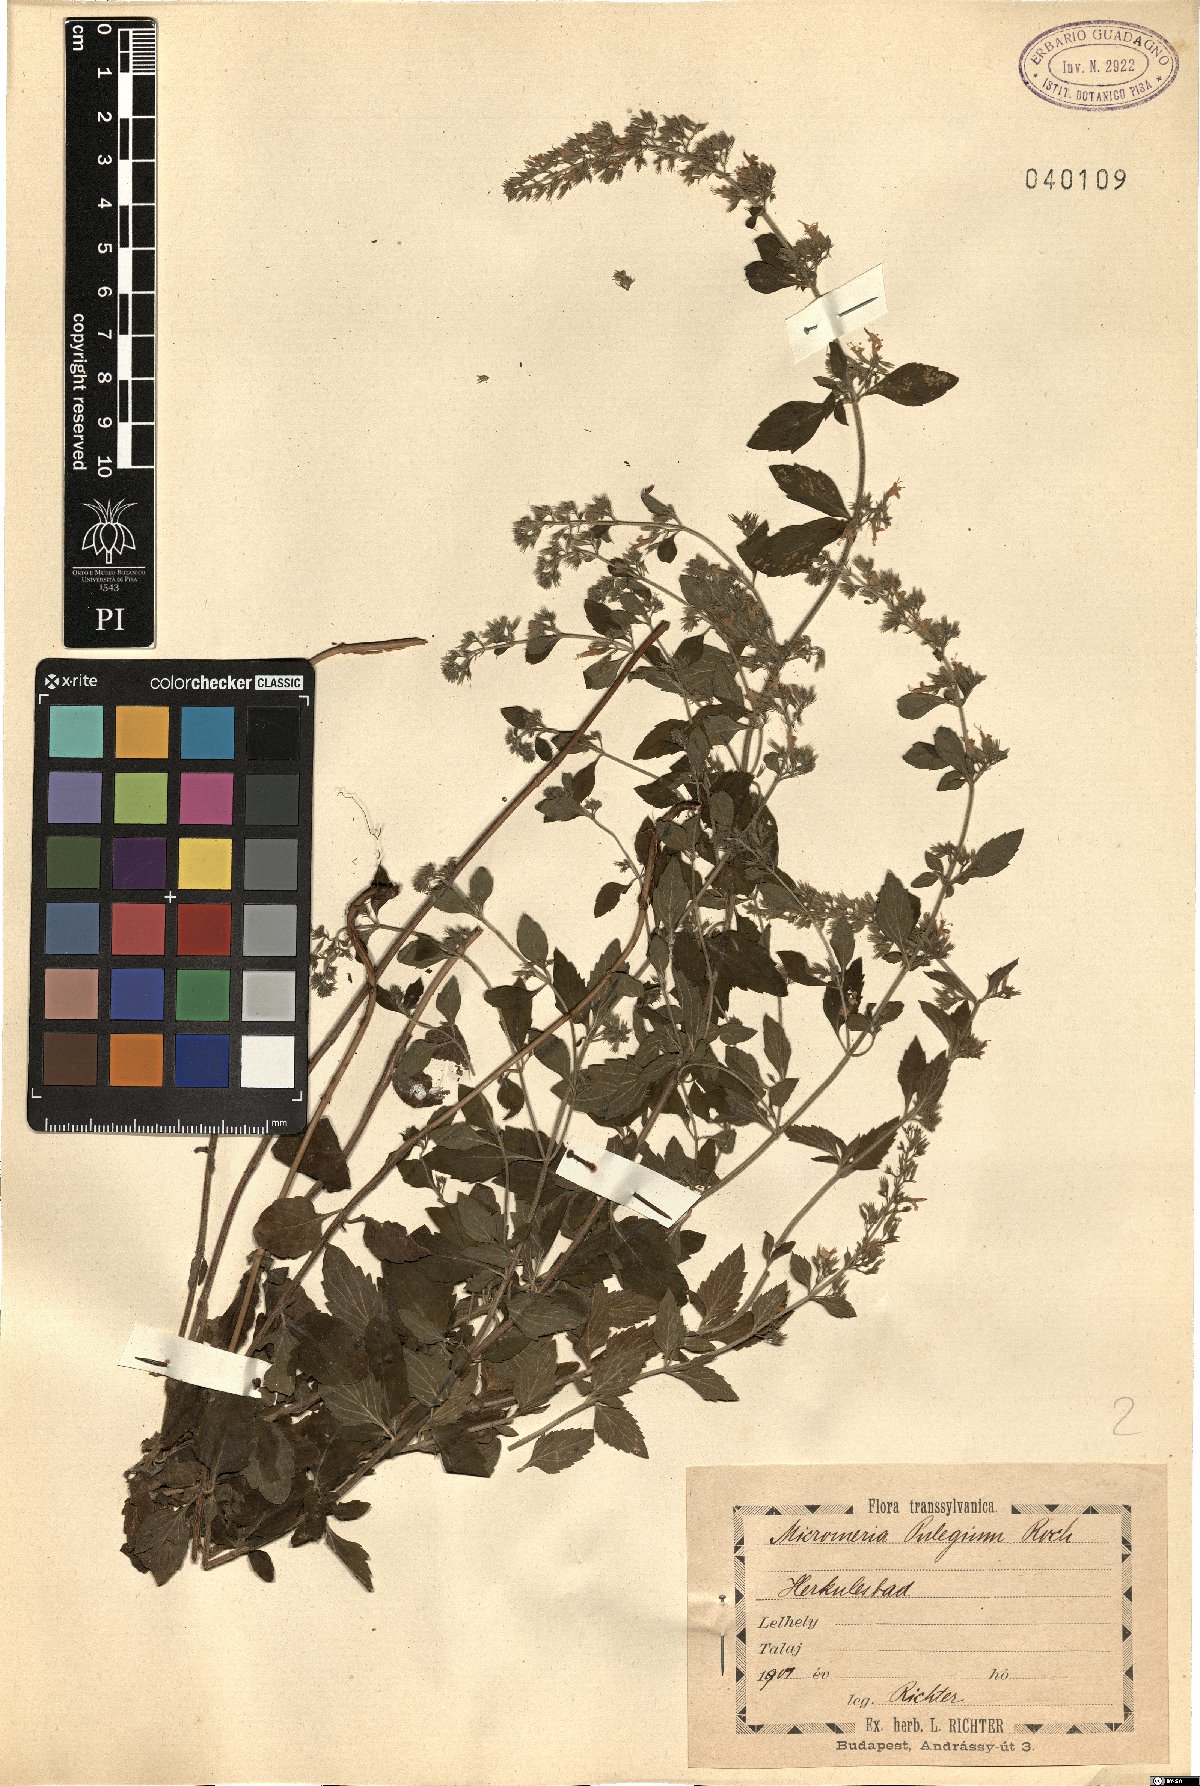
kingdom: Plantae
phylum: Tracheophyta
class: Magnoliopsida
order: Lamiales
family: Lamiaceae
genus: Clinopodium
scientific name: Clinopodium pulegium
